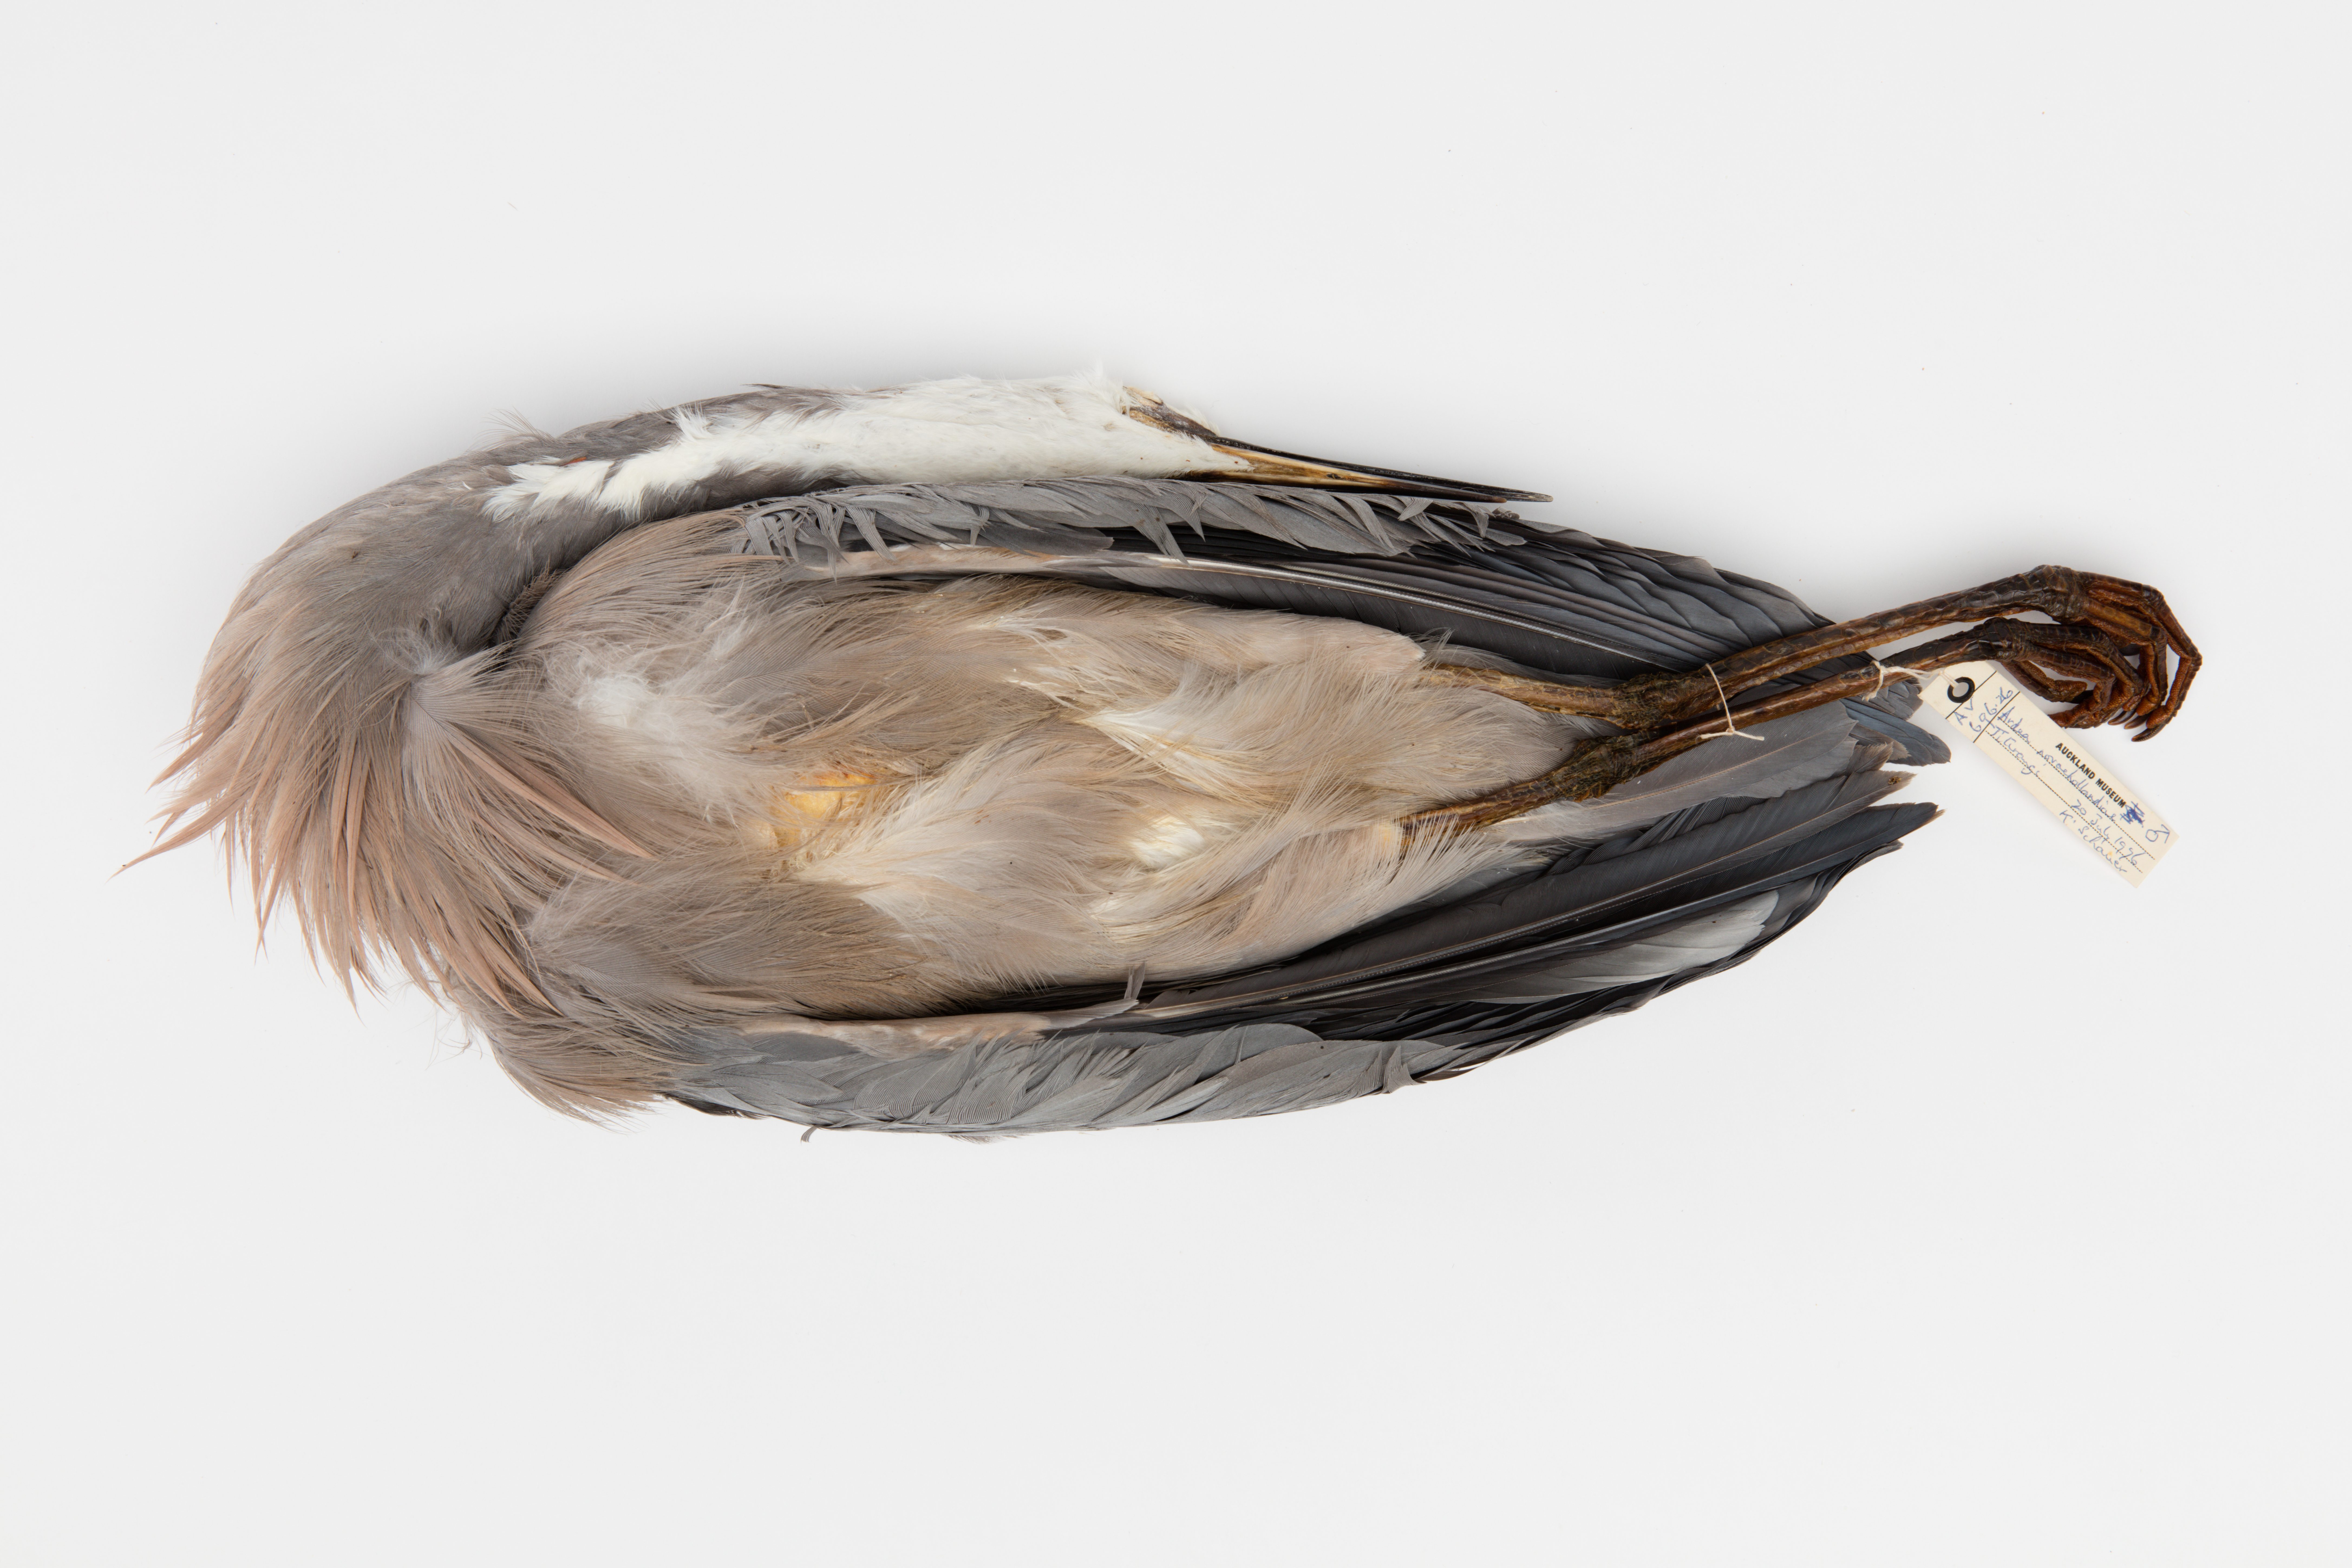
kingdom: Animalia
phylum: Chordata
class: Aves
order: Pelecaniformes
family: Ardeidae
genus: Egretta
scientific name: Egretta novaehollandiae
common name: White-faced heron
